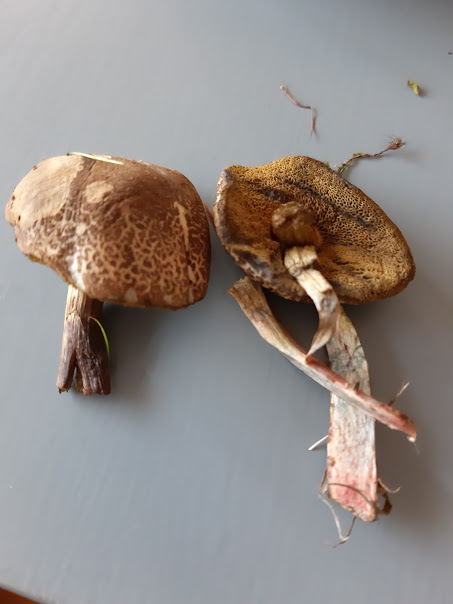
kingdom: Fungi
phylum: Basidiomycota
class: Agaricomycetes
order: Boletales
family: Boletaceae
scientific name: Boletaceae
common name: rørhatfamilien
